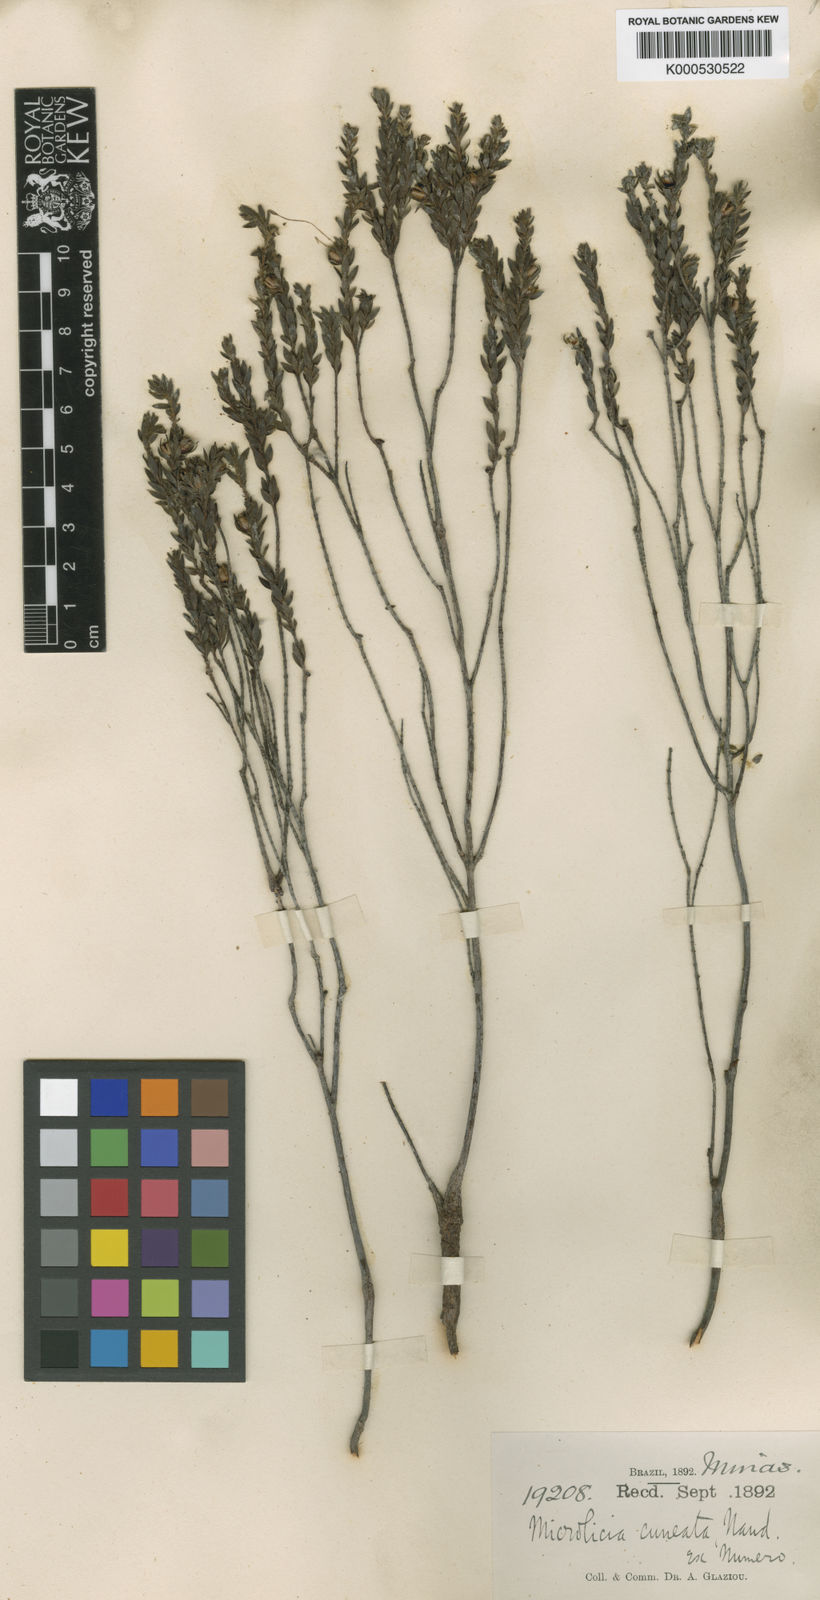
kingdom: Plantae
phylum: Tracheophyta
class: Magnoliopsida
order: Myrtales
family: Melastomataceae
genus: Microlicia
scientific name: Microlicia longicalycina
